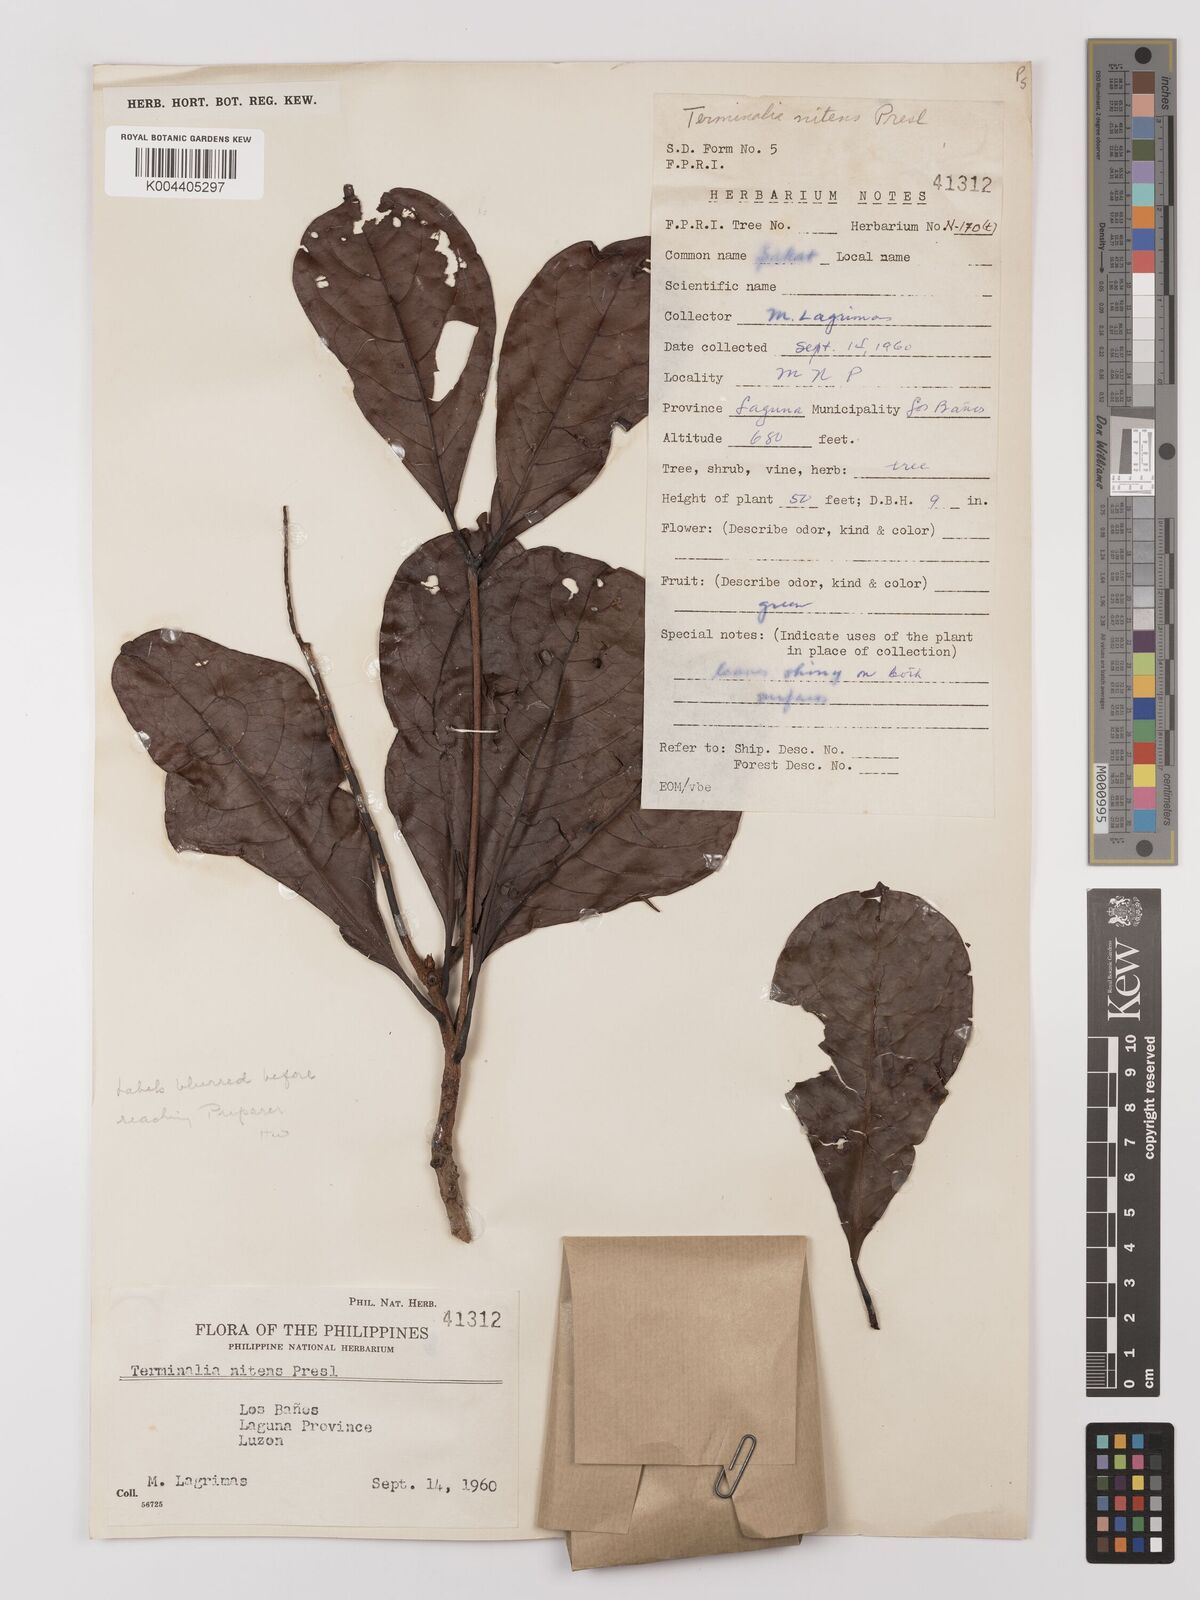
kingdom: Plantae
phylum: Tracheophyta
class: Magnoliopsida
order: Myrtales
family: Combretaceae
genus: Terminalia
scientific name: Terminalia nitens
